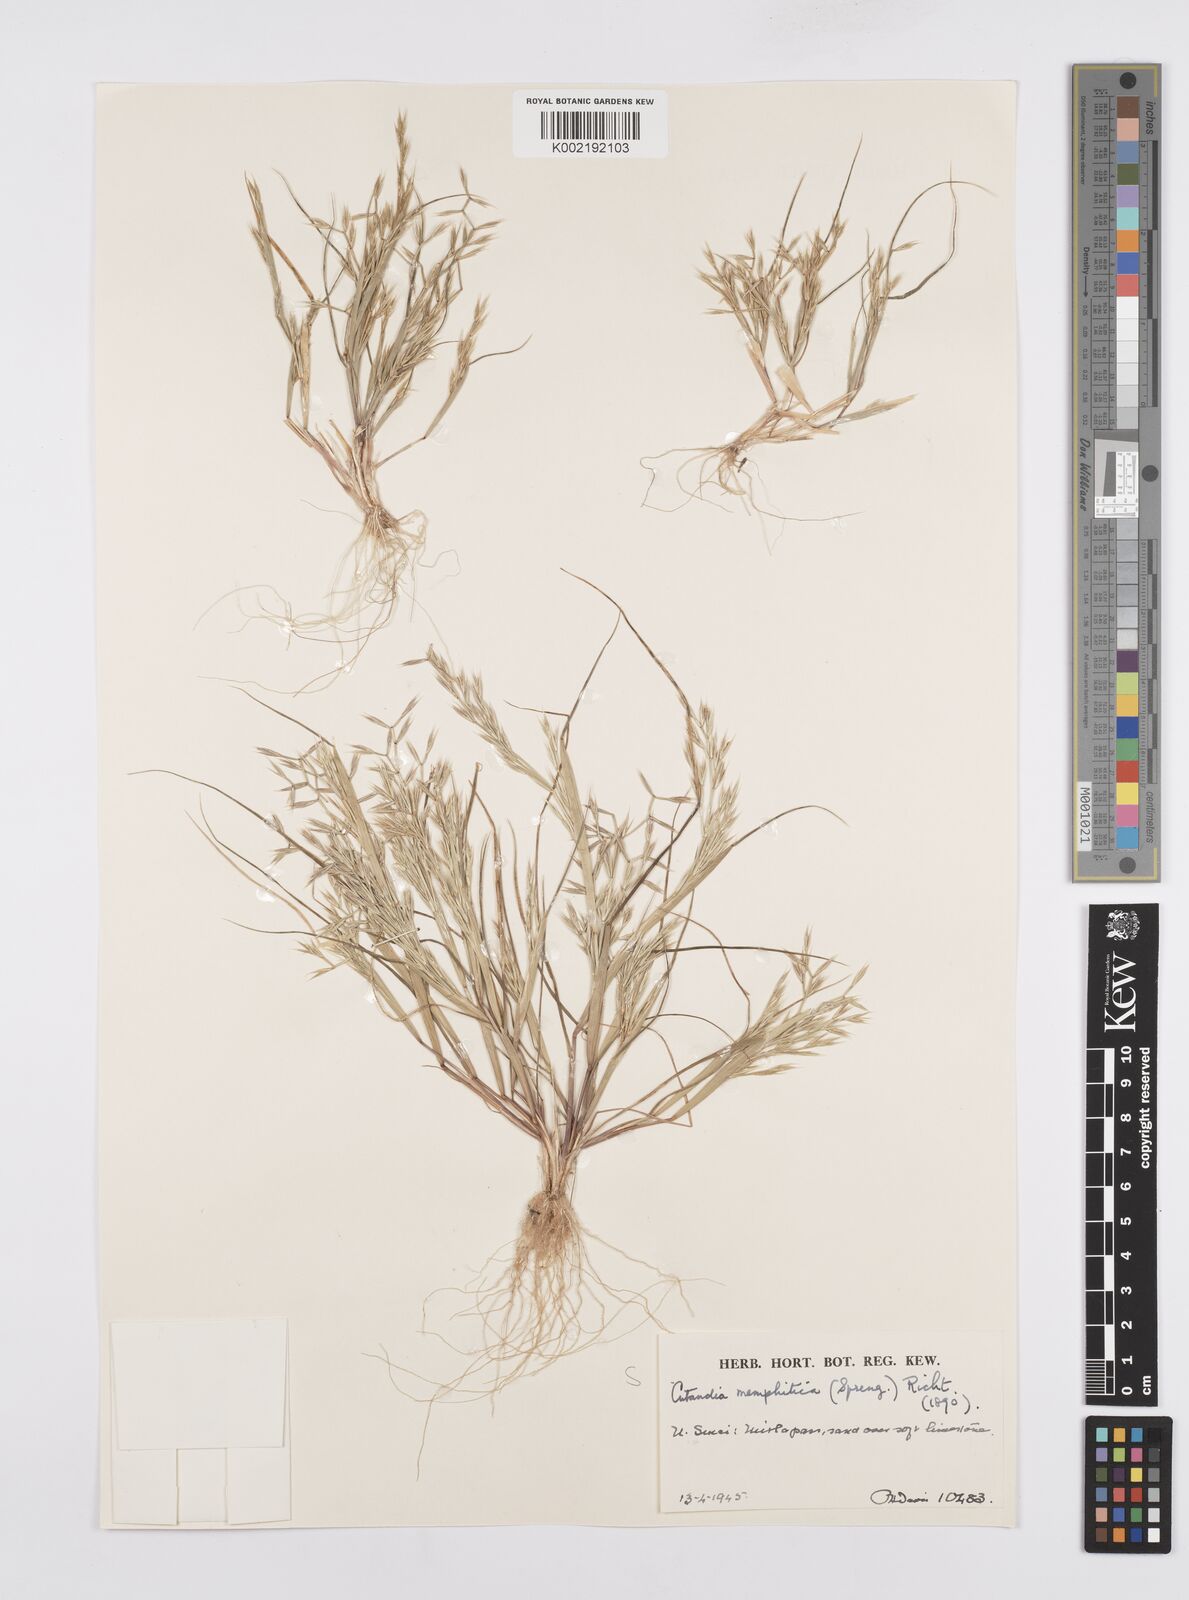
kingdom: Plantae
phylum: Tracheophyta
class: Liliopsida
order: Poales
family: Poaceae
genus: Cutandia
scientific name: Cutandia memphitica
